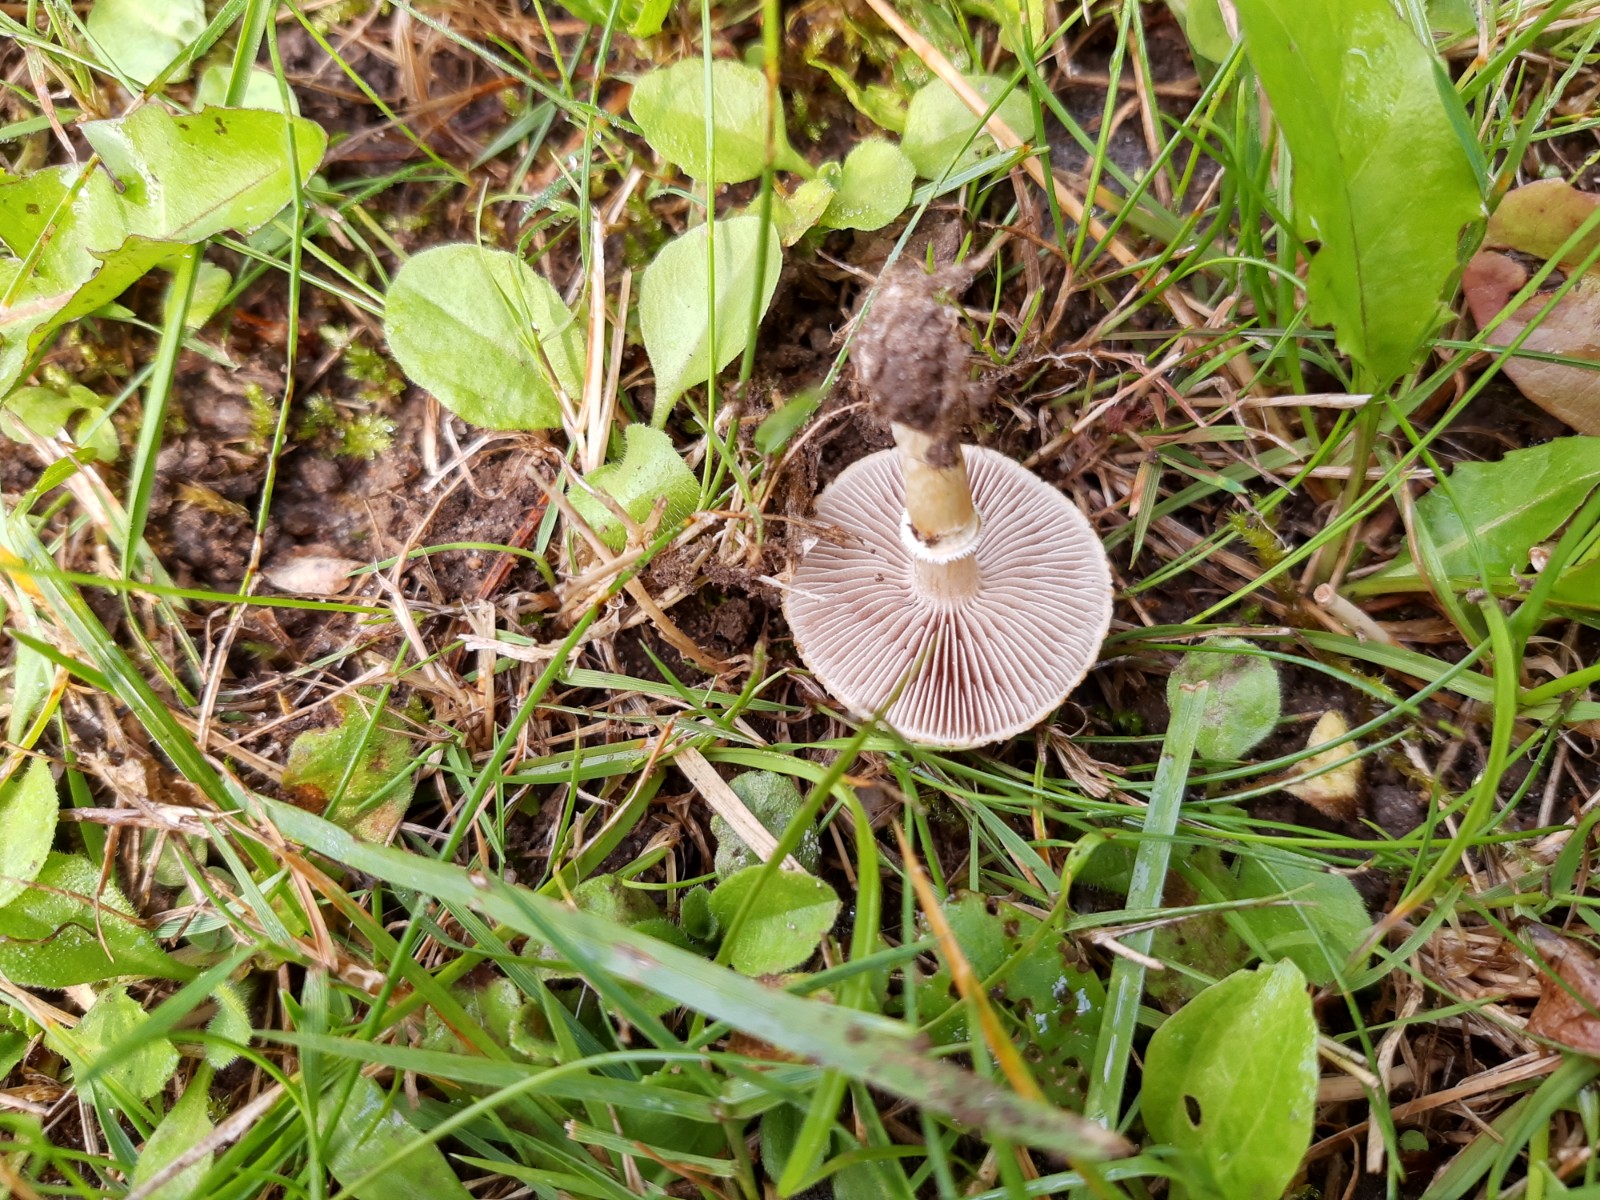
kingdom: Fungi
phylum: Basidiomycota
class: Agaricomycetes
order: Agaricales
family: Hymenogastraceae
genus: Psilocybe
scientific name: Psilocybe coronilla
